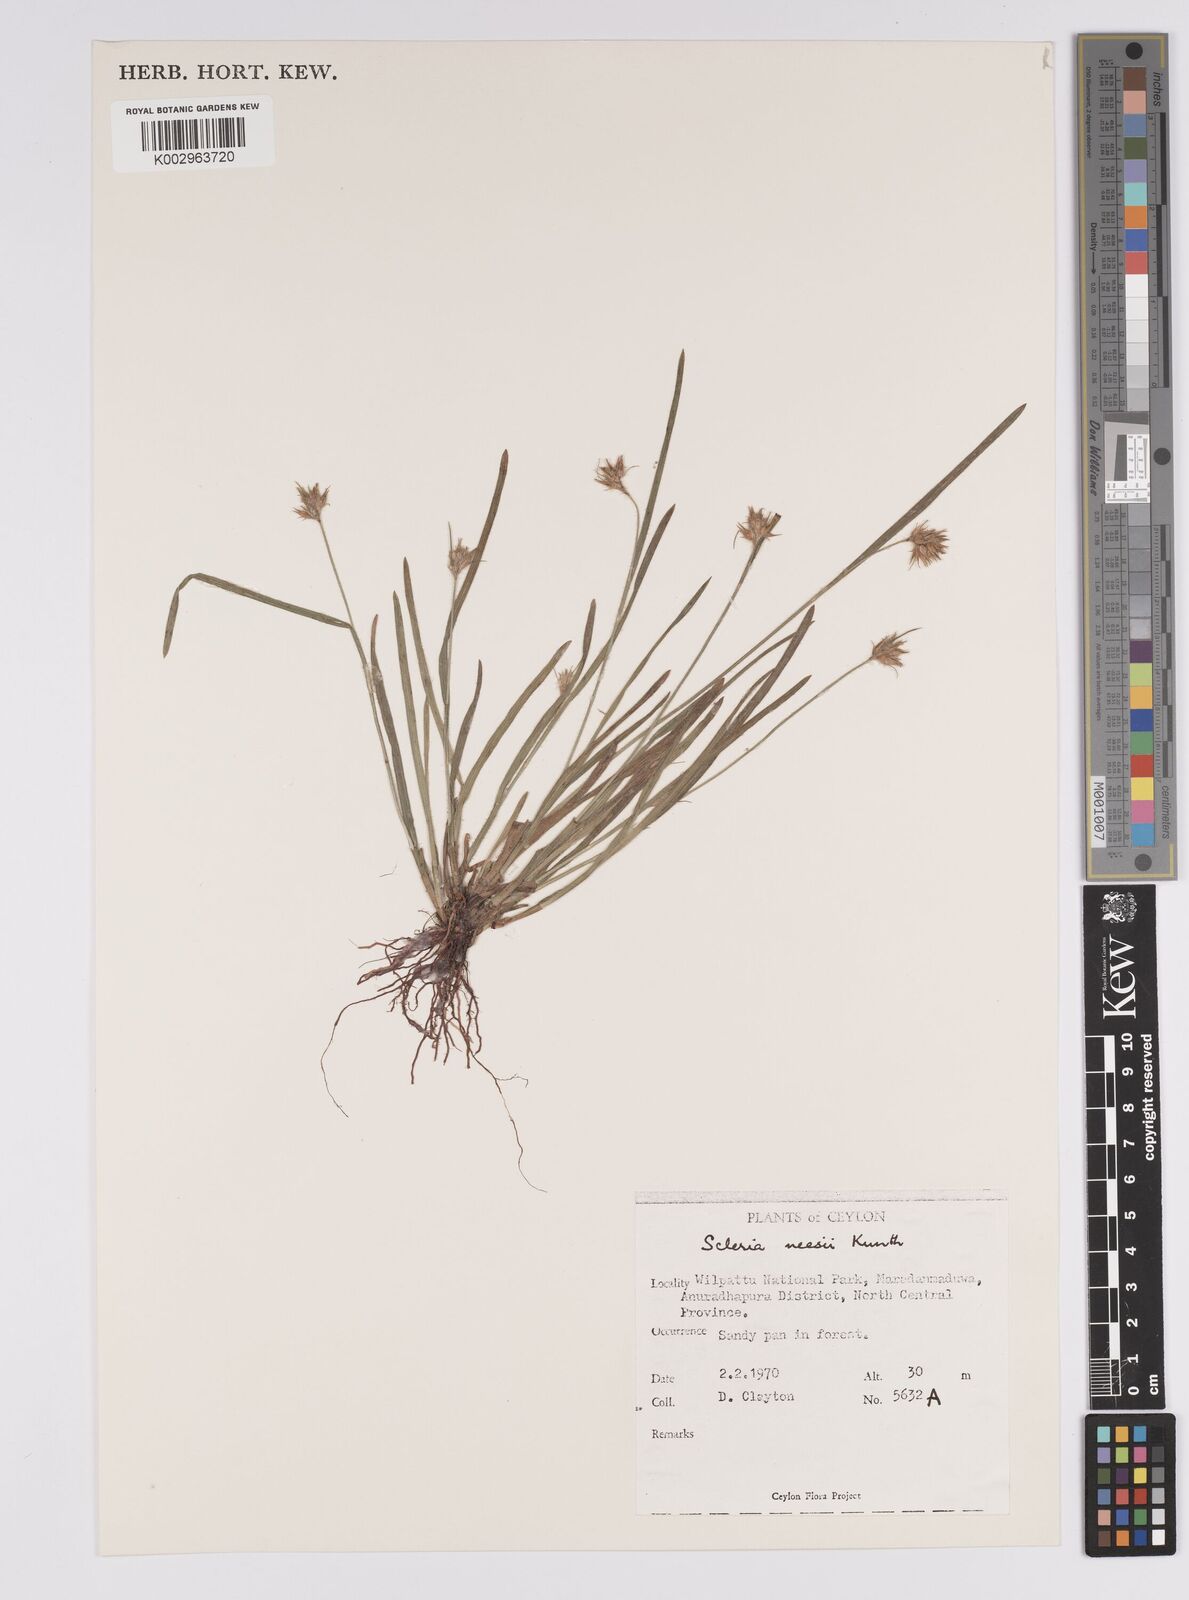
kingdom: Plantae
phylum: Tracheophyta
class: Liliopsida
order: Poales
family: Cyperaceae
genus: Scleria
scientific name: Scleria neesii
